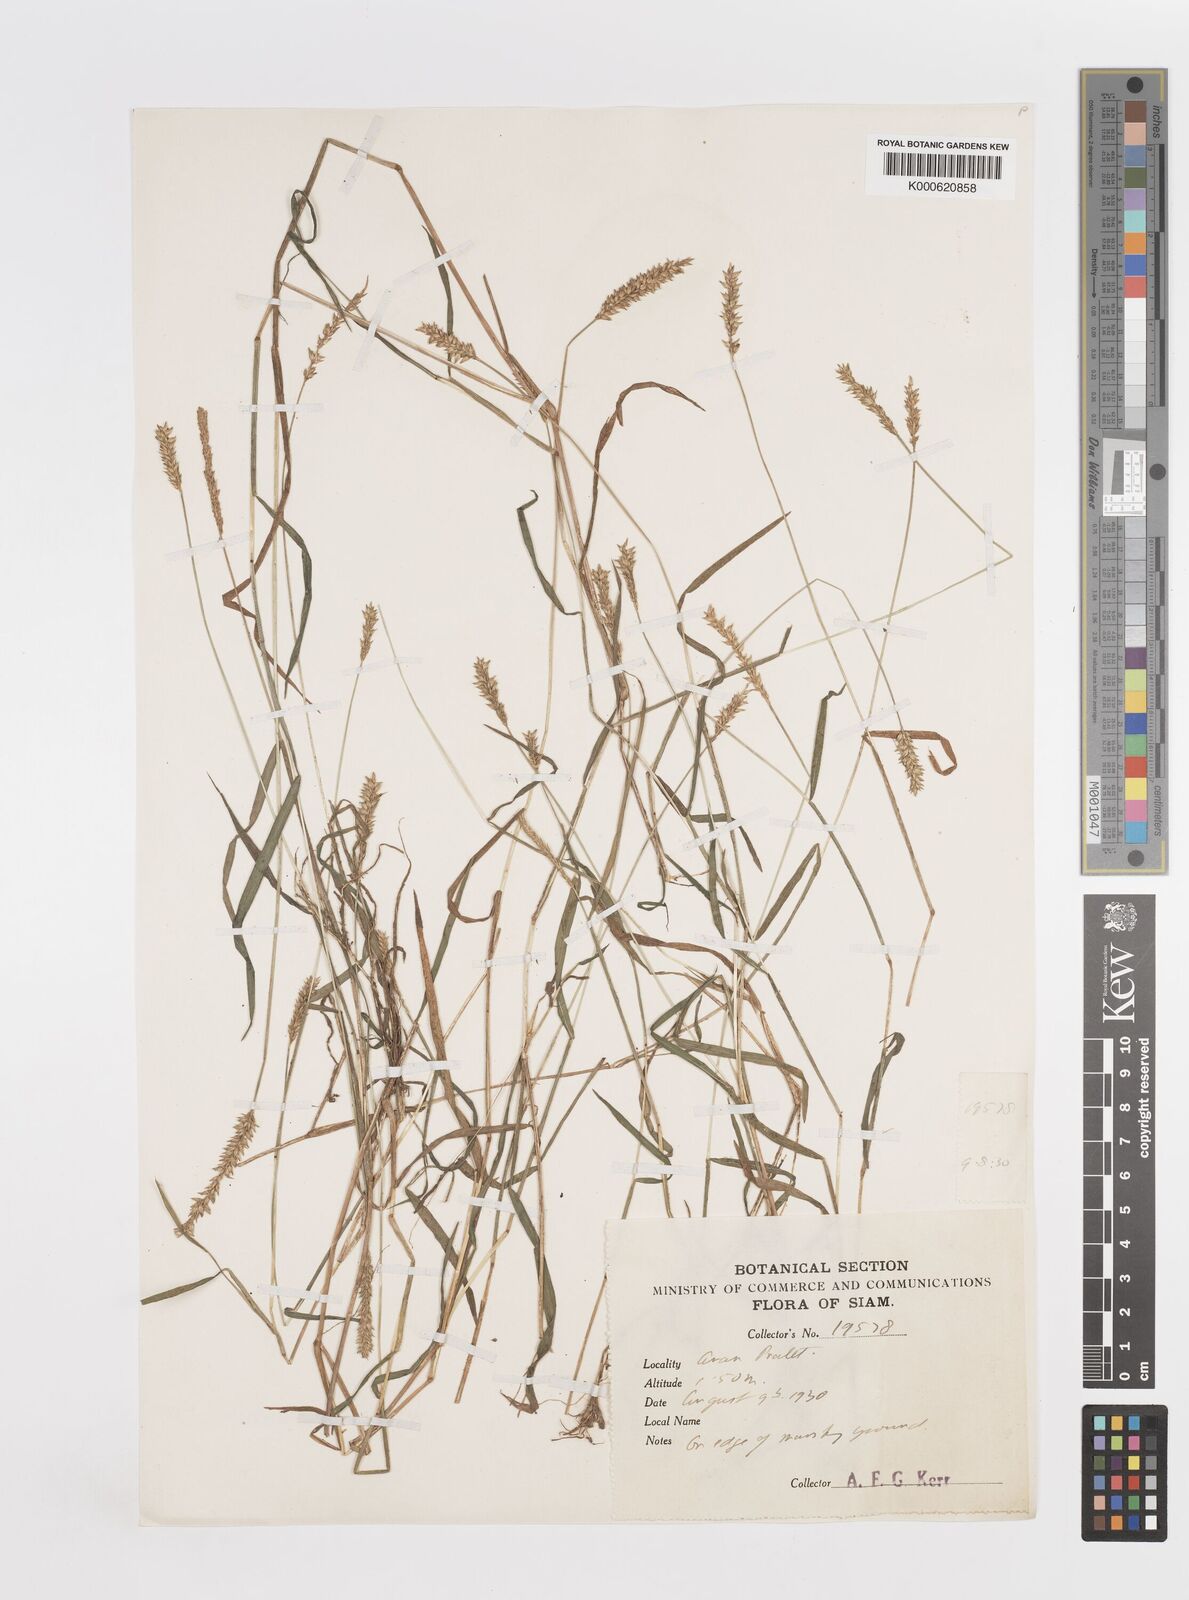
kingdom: Plantae
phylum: Tracheophyta
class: Liliopsida
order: Poales
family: Poaceae
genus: Sacciolepis
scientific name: Sacciolepis indica
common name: Glenwoodgrass
